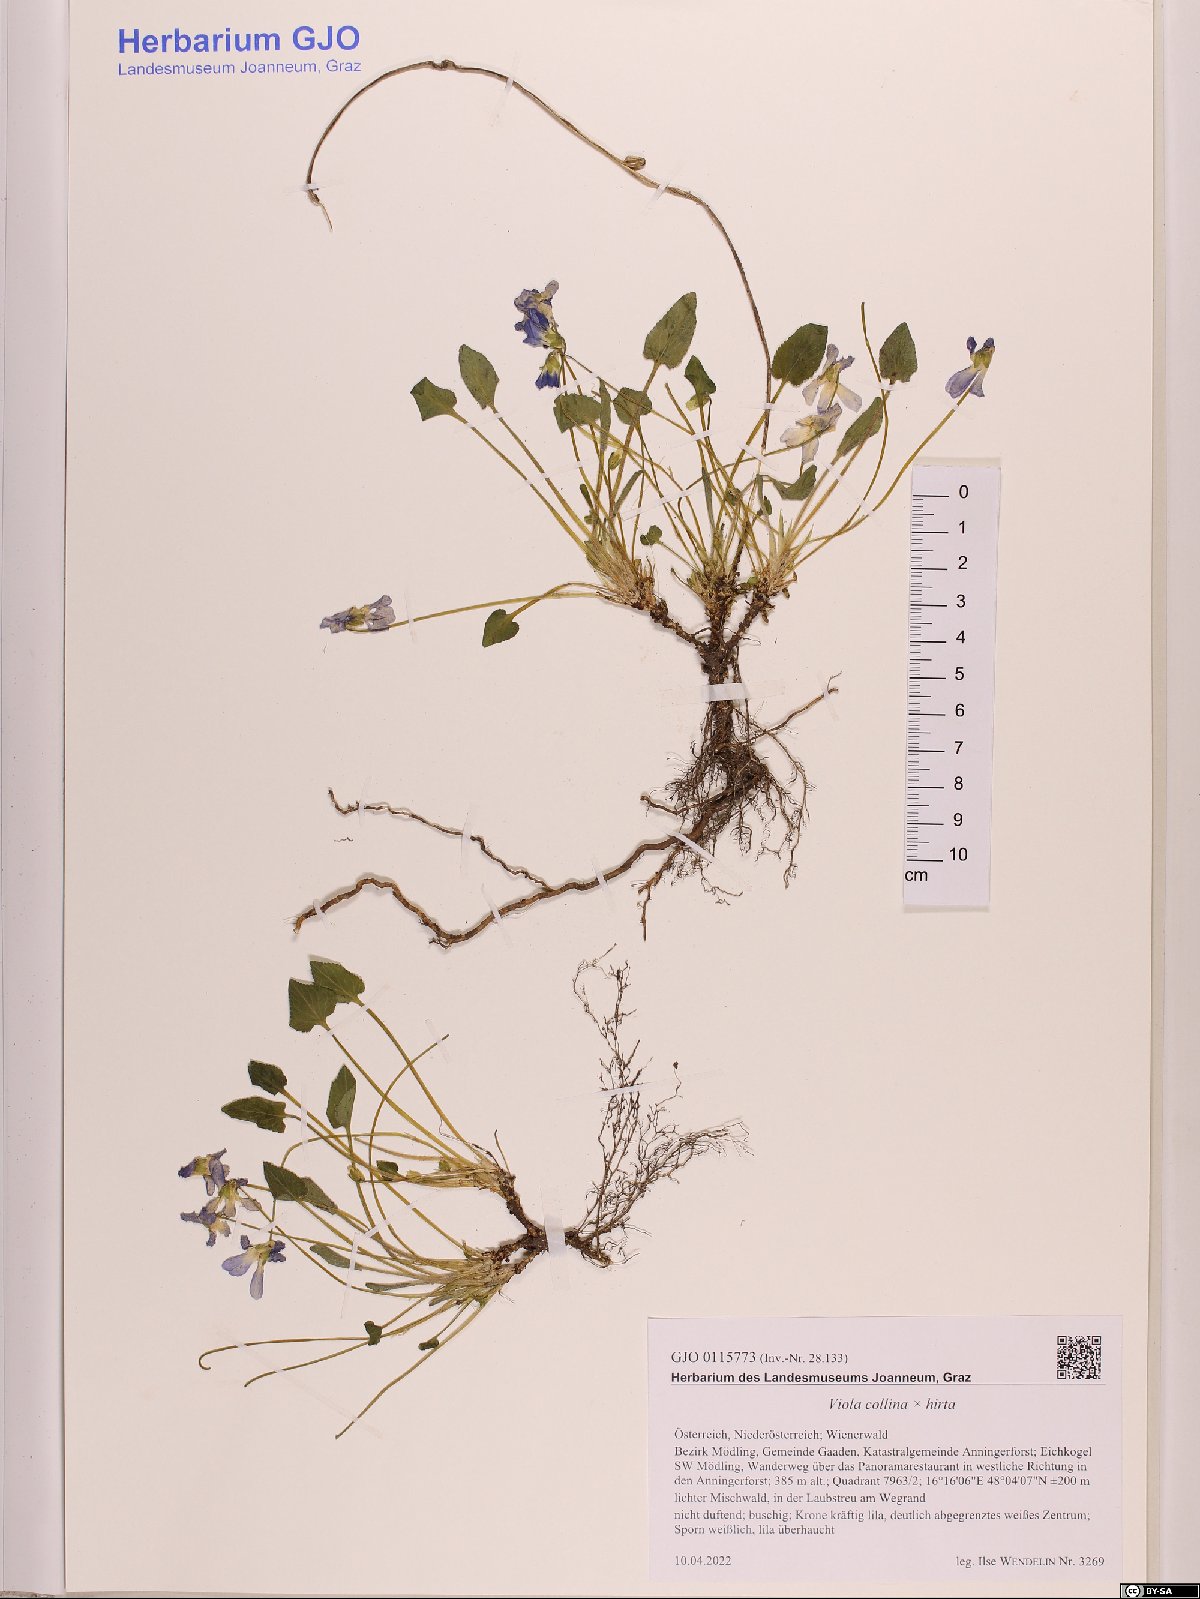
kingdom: Plantae
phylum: Tracheophyta
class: Magnoliopsida
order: Malpighiales
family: Violaceae
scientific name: Violaceae
